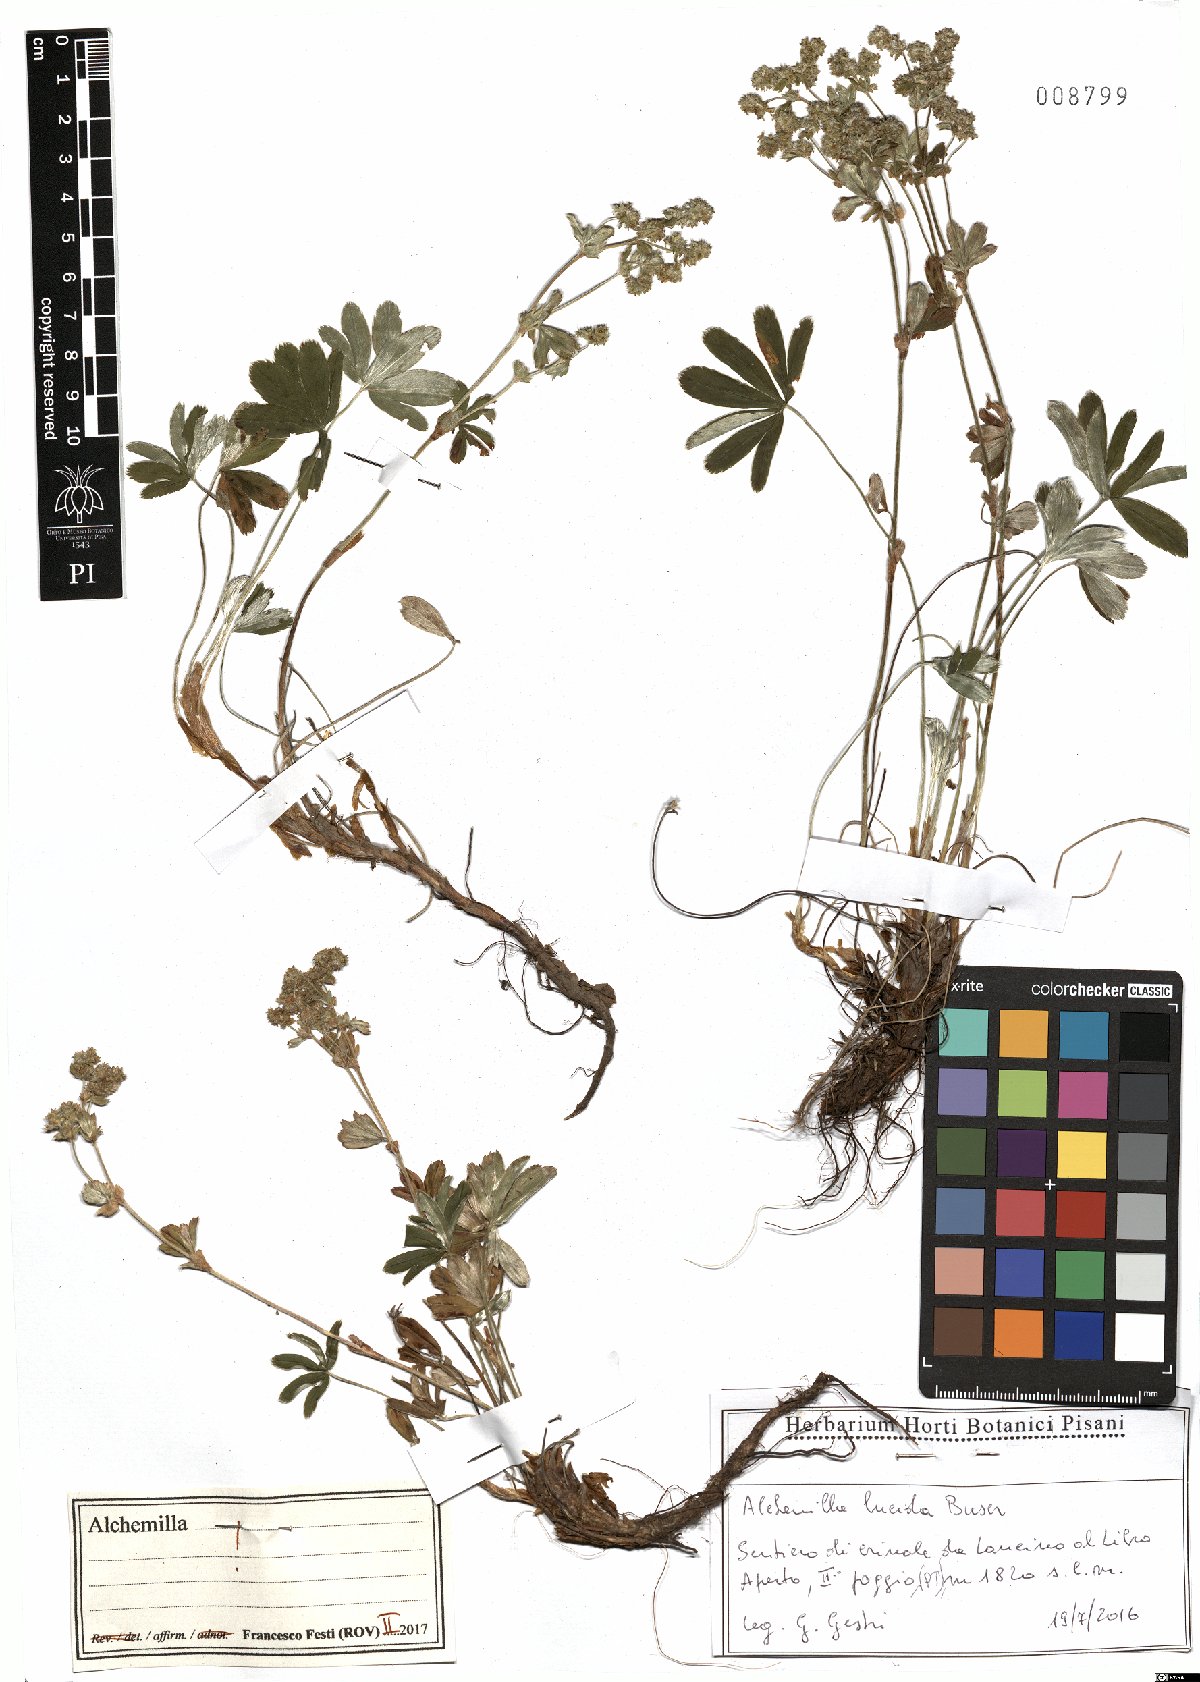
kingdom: Plantae
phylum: Tracheophyta
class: Magnoliopsida
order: Rosales
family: Rosaceae
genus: Alchemilla
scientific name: Alchemilla lucida
